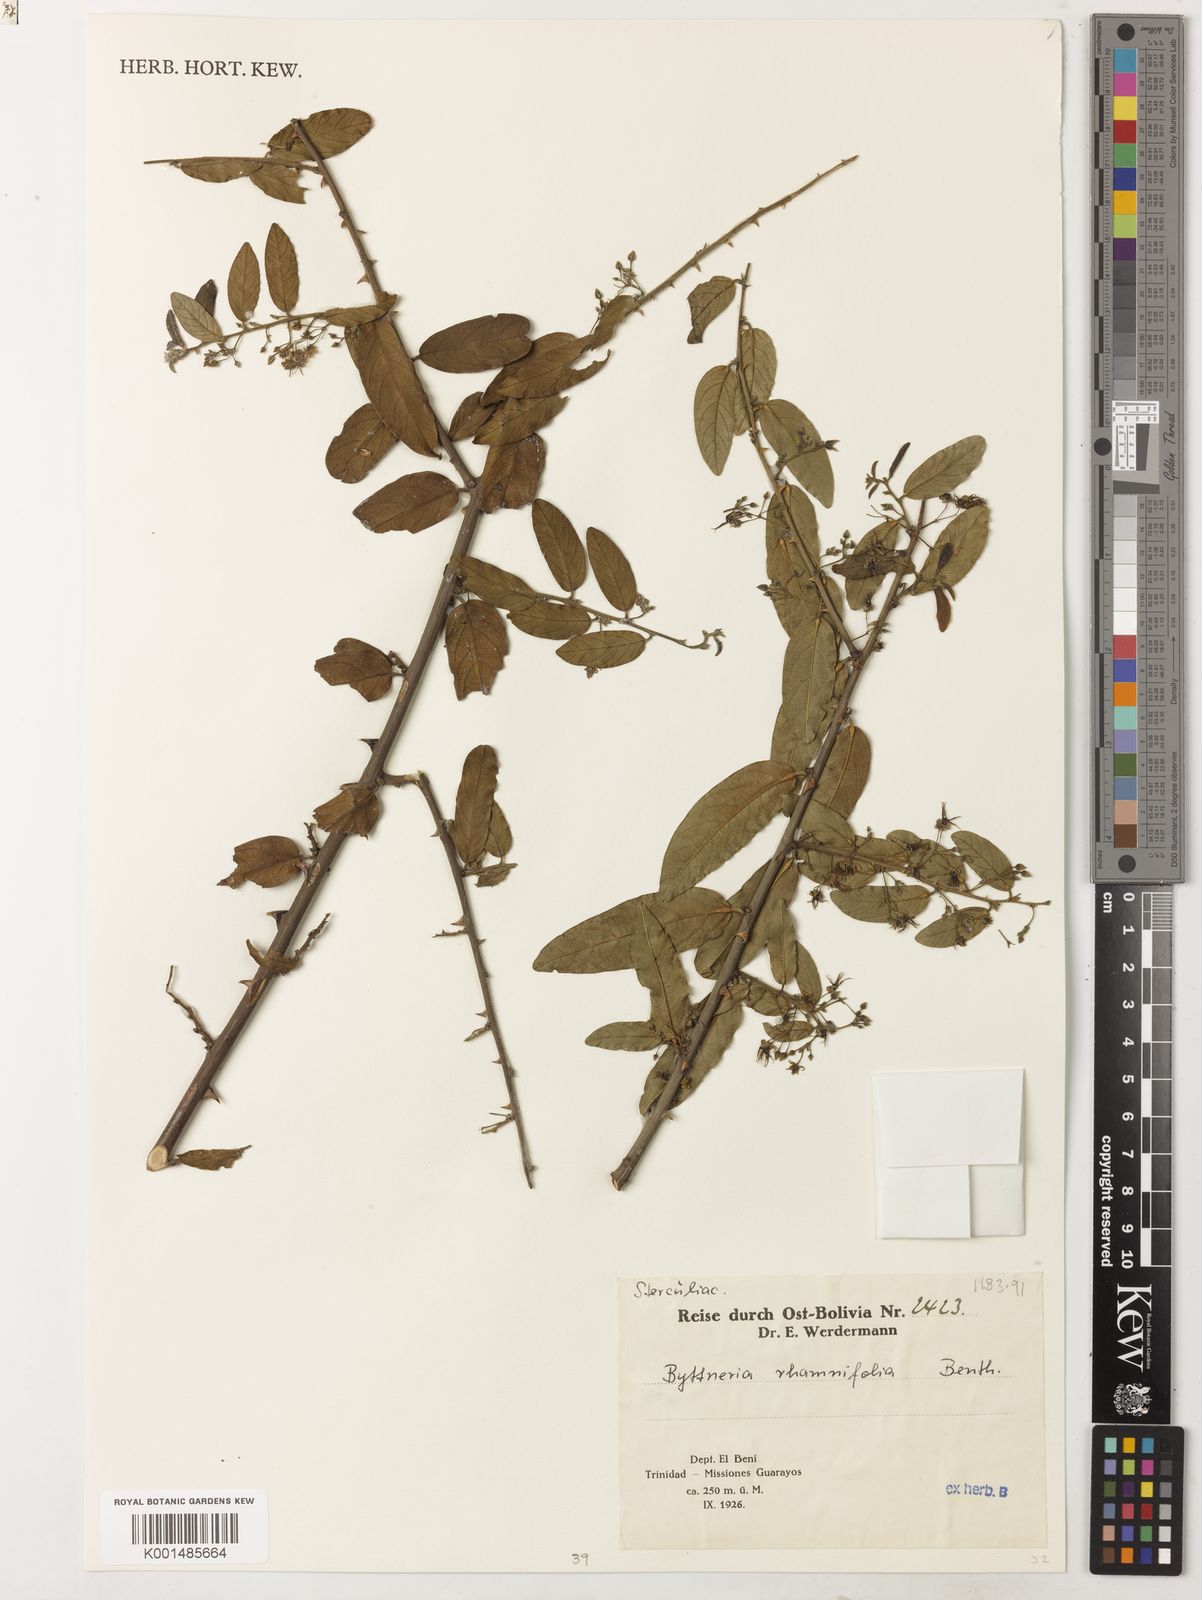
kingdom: Plantae
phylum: Tracheophyta
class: Magnoliopsida
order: Malvales
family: Malvaceae
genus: Byttneria
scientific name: Byttneria rhamnifolia
